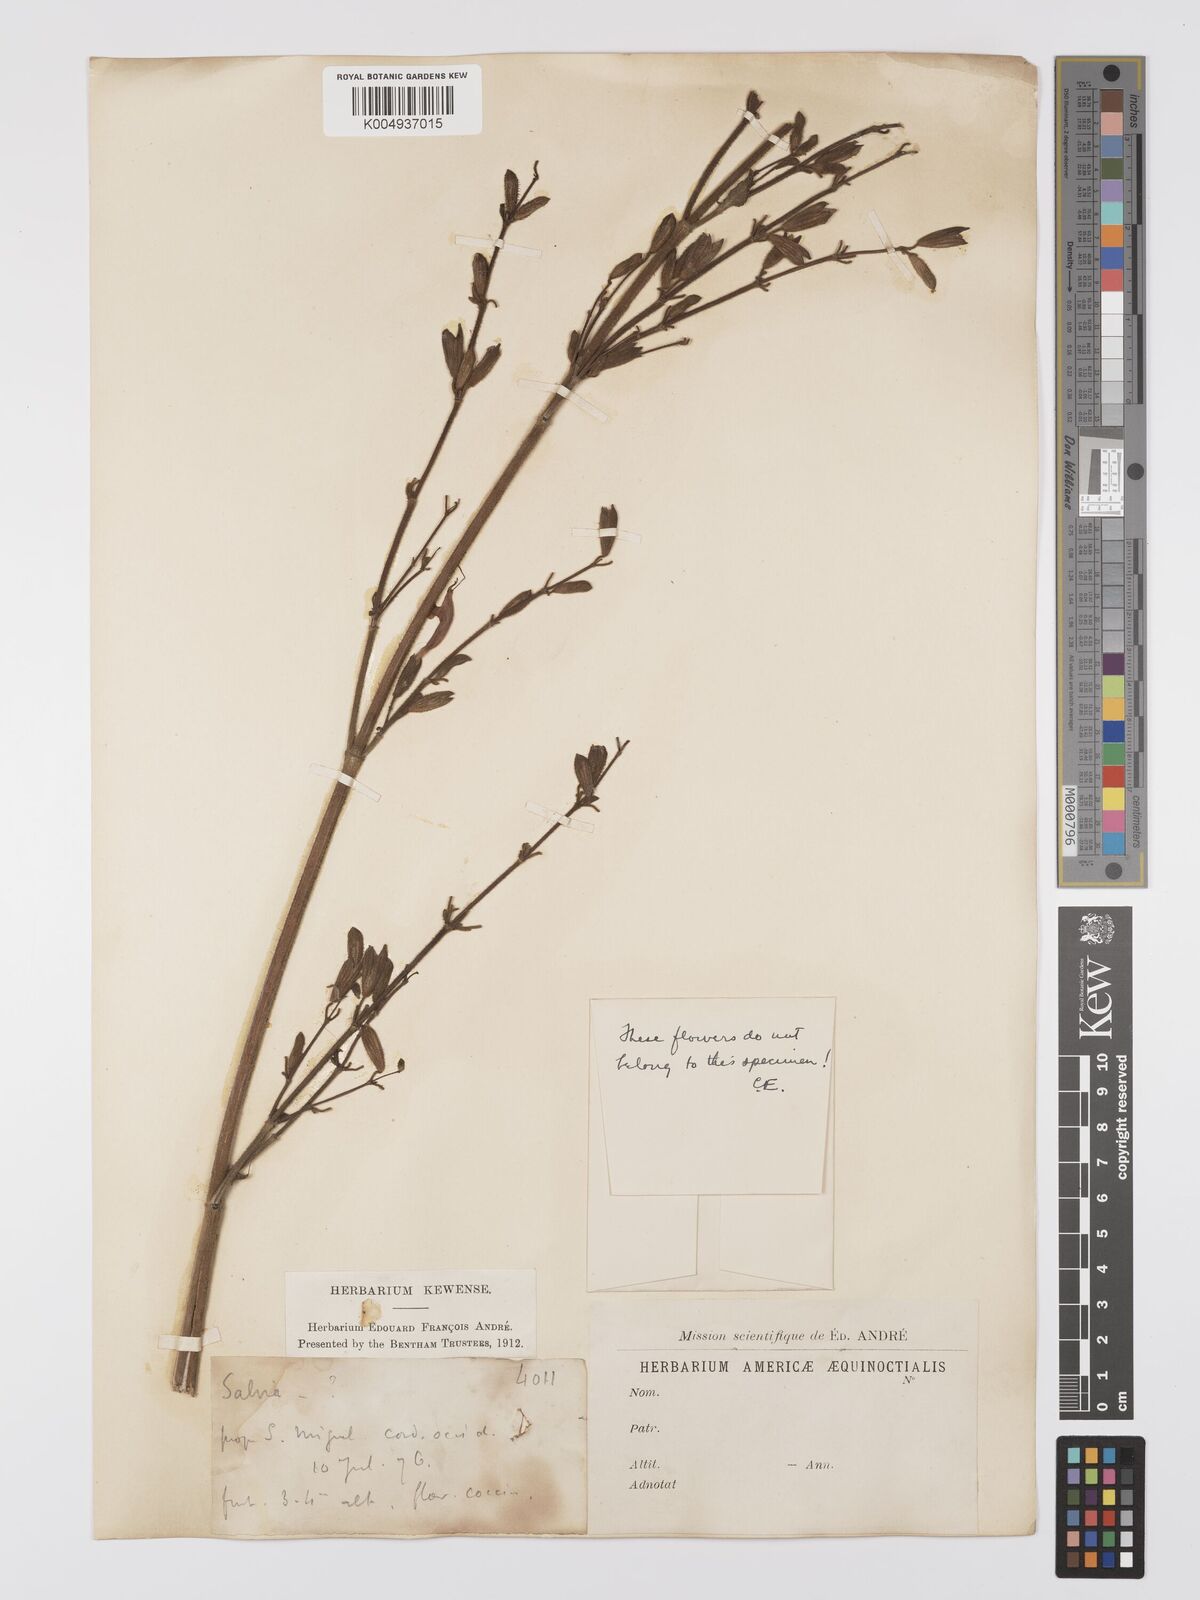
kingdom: Plantae
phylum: Tracheophyta
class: Magnoliopsida
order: Lamiales
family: Lamiaceae
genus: Salvia
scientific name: Salvia sprucei
